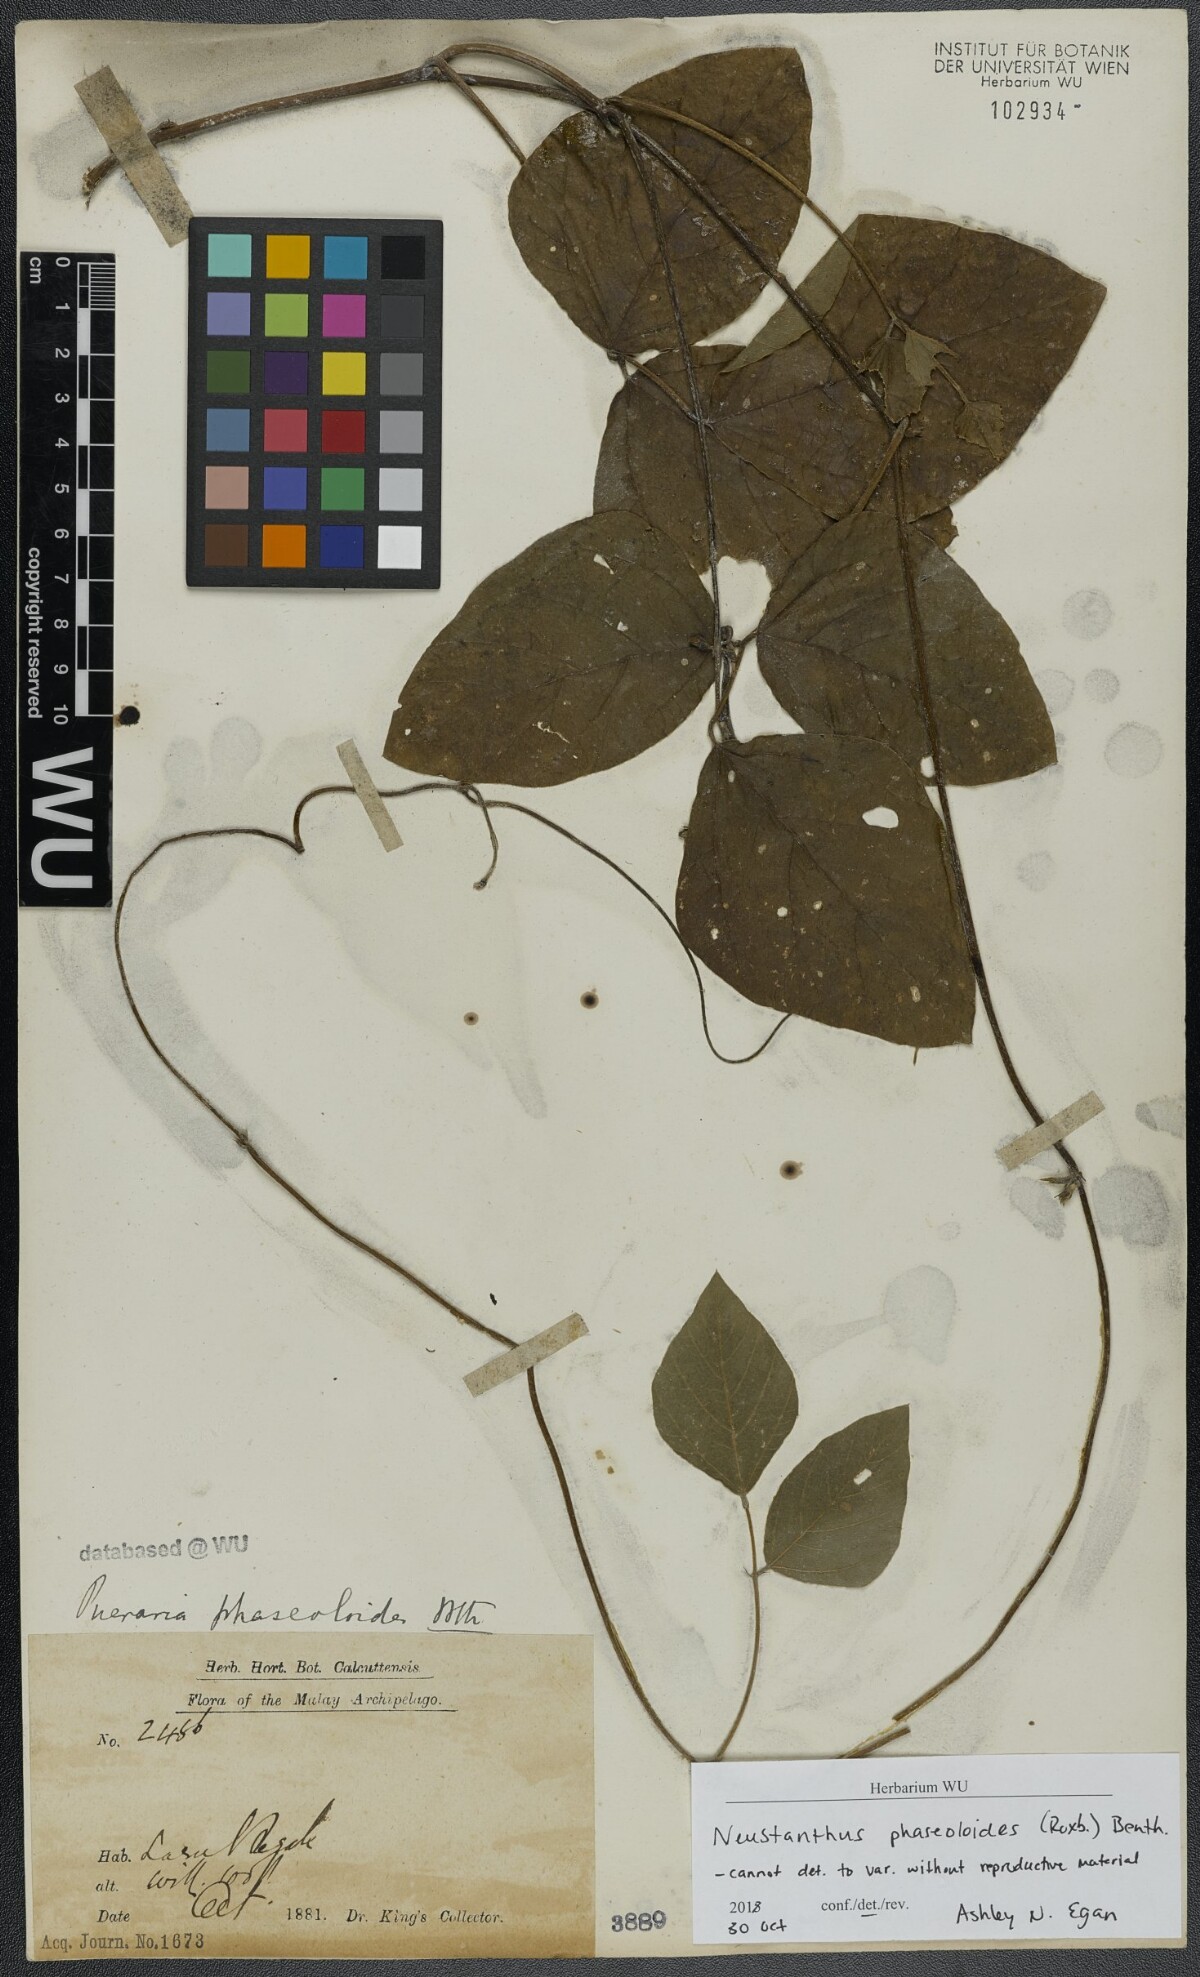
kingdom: Plantae
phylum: Tracheophyta
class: Magnoliopsida
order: Fabales
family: Fabaceae
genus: Neustanthus
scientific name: Neustanthus phaseoloides
